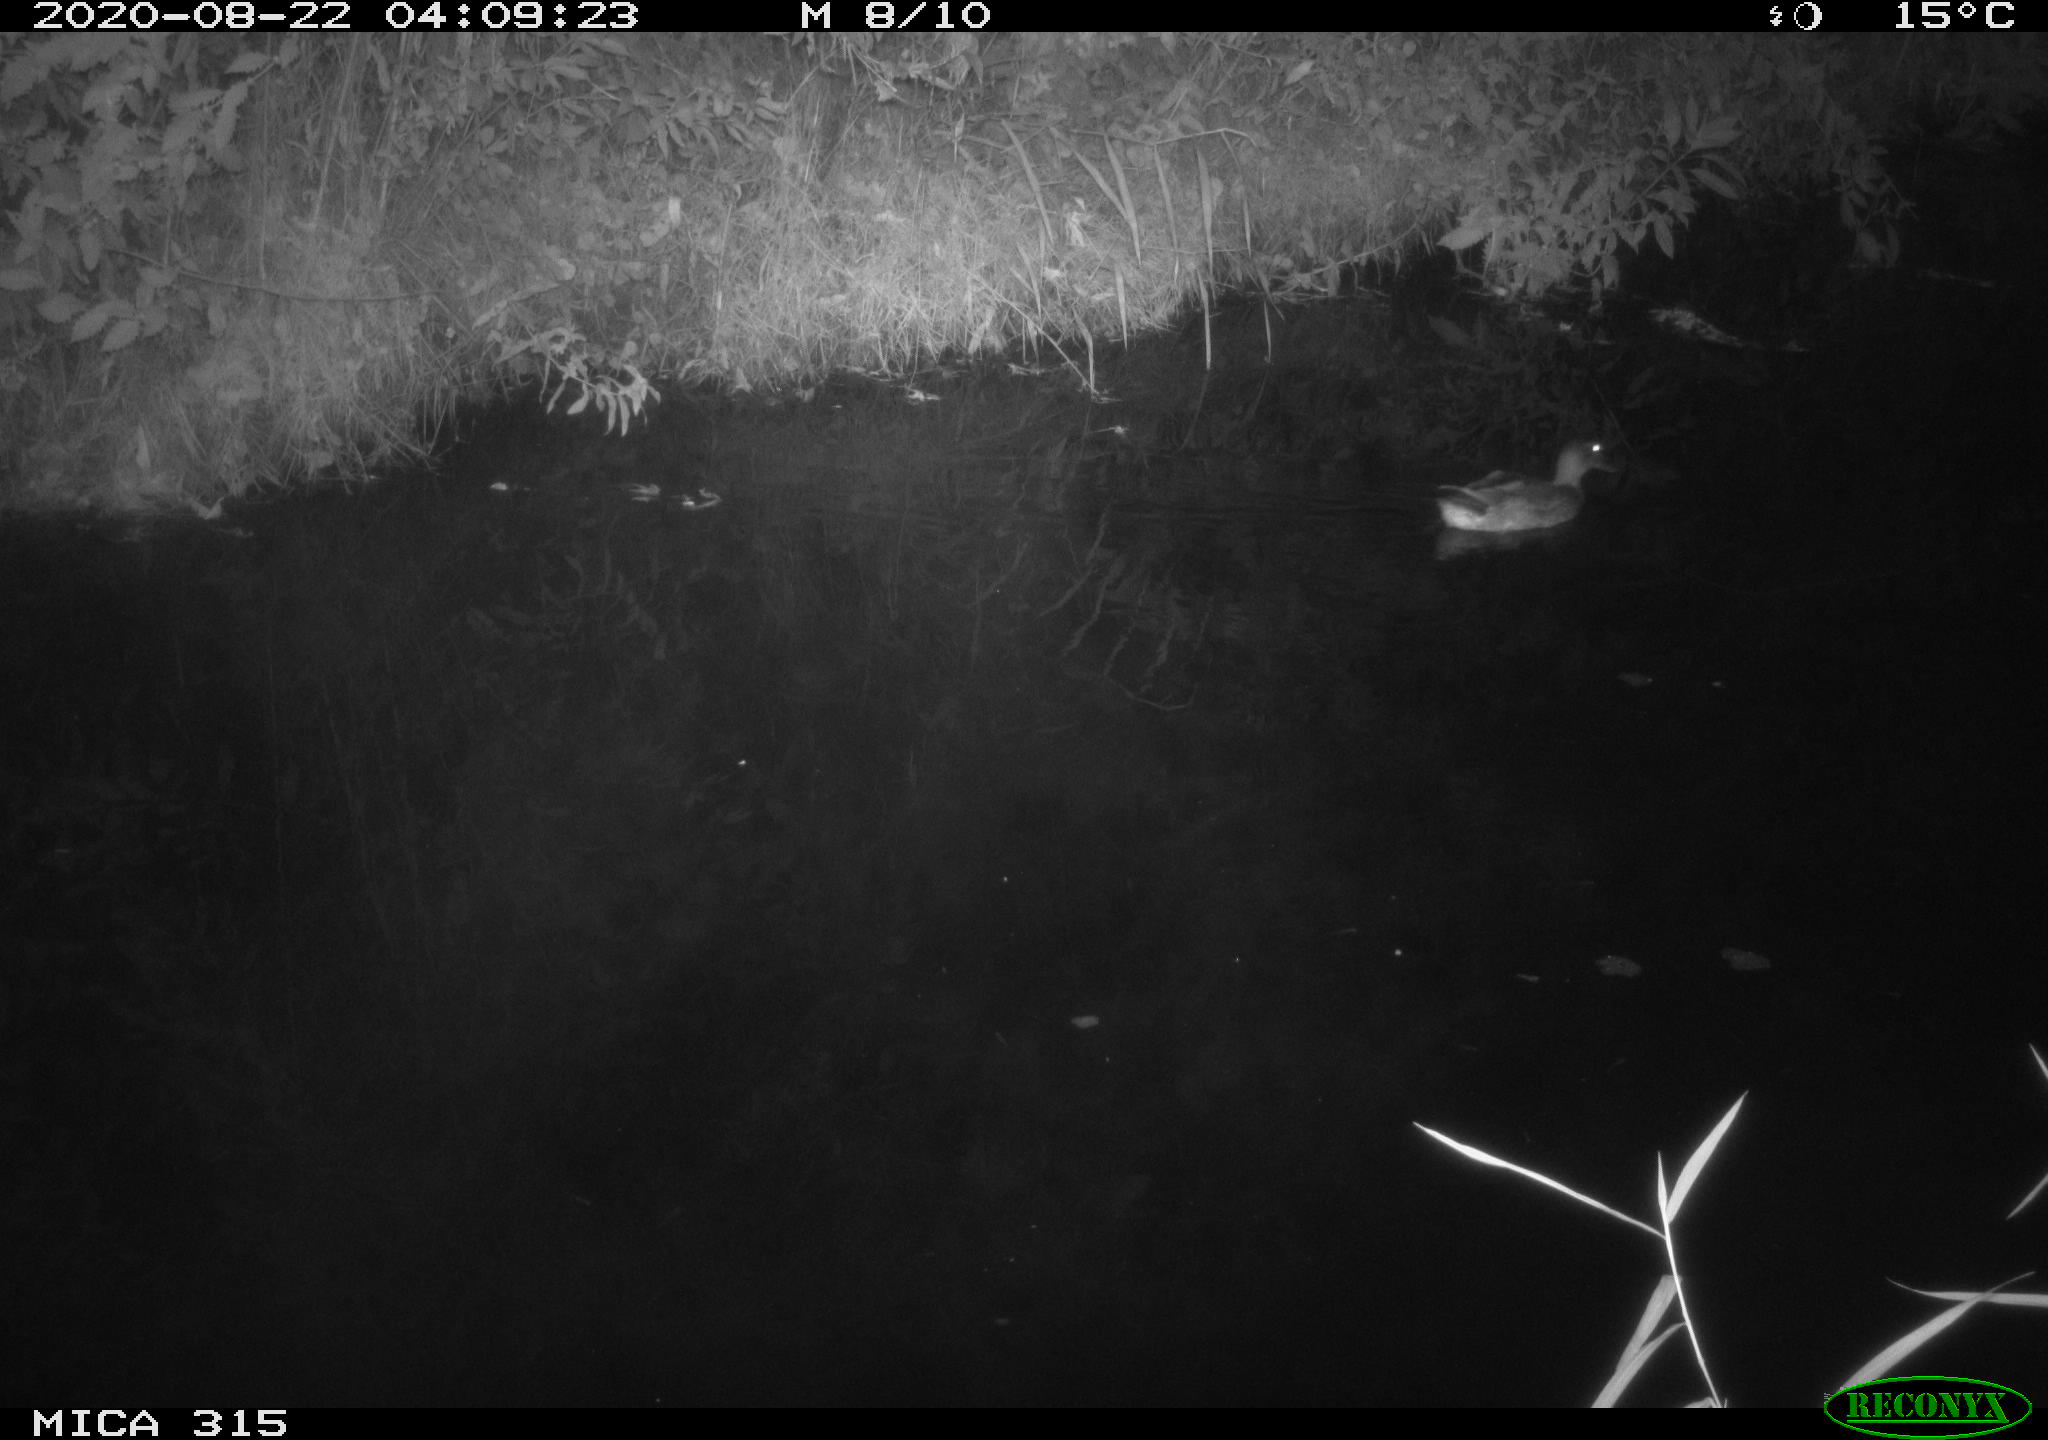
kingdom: Animalia
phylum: Chordata
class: Aves
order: Anseriformes
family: Anatidae
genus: Anas
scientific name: Anas platyrhynchos
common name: Mallard
